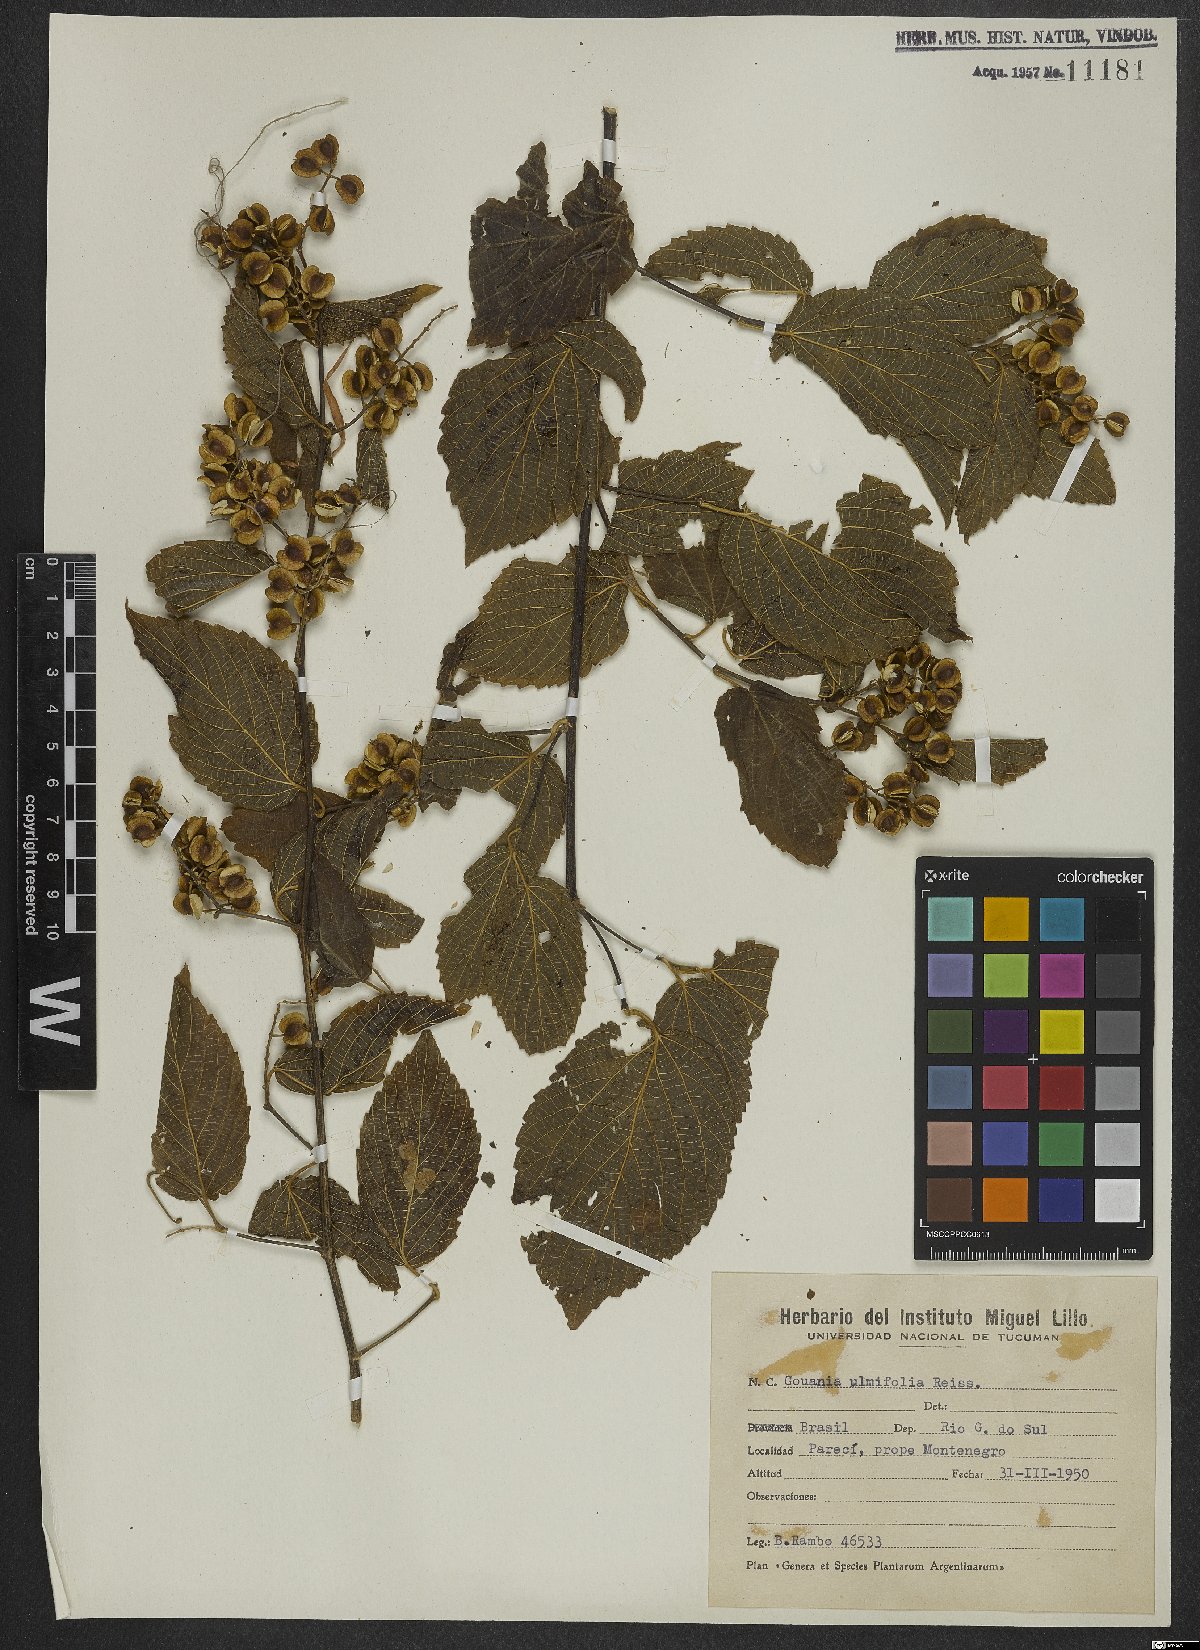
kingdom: Plantae
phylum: Tracheophyta
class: Magnoliopsida
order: Rosales
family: Rhamnaceae
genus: Gouania
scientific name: Gouania ulmifolia
